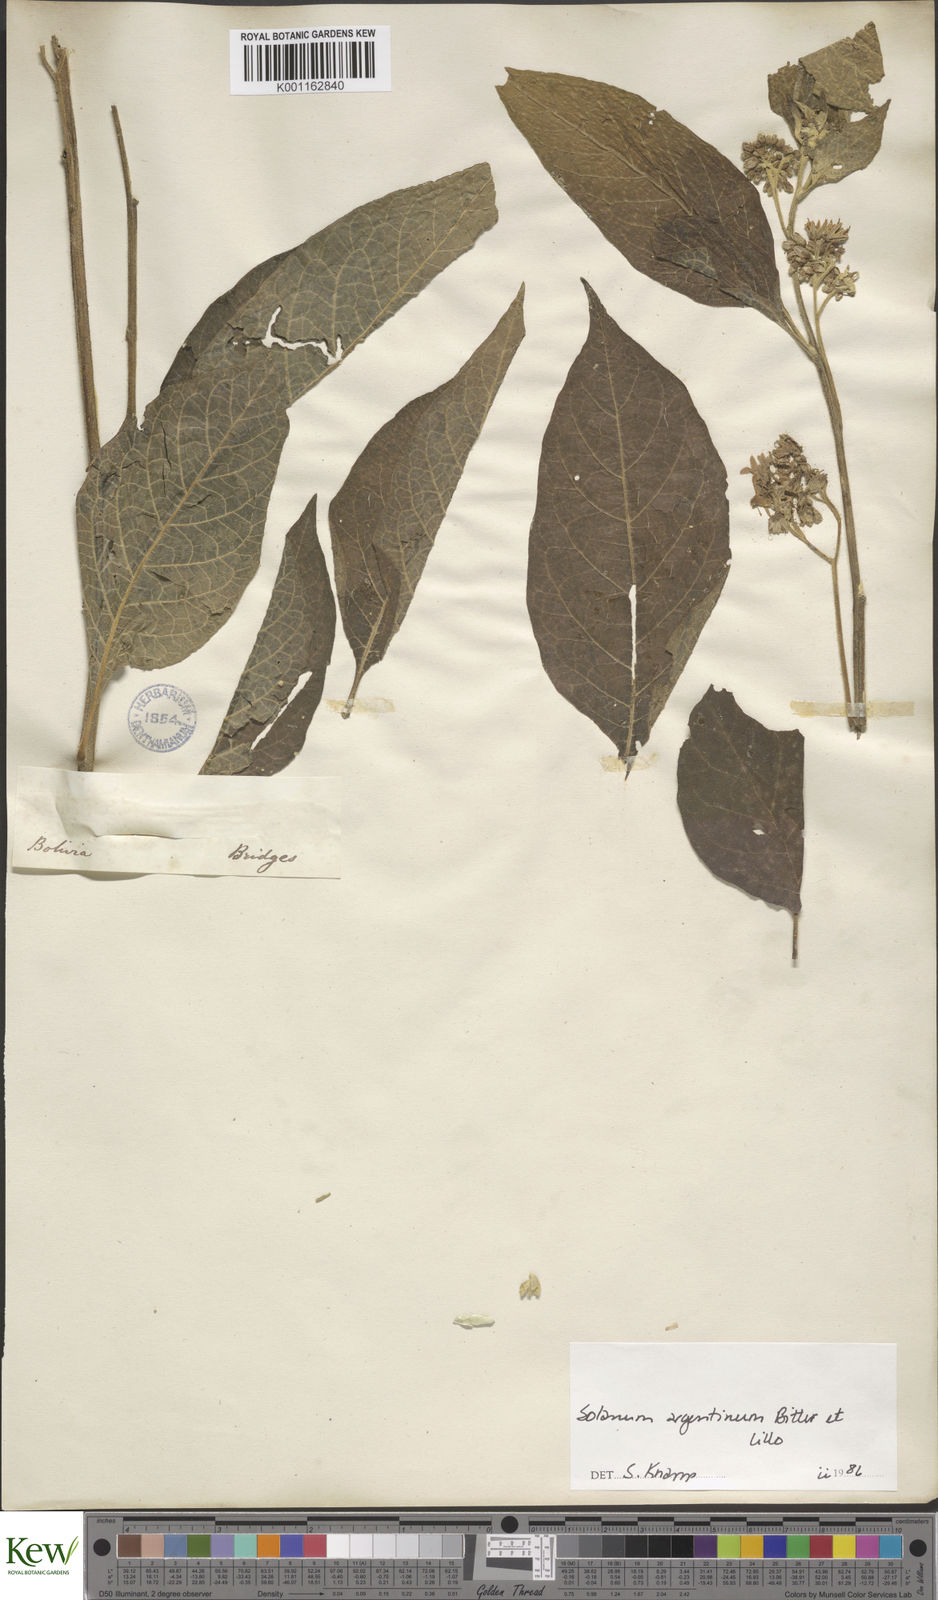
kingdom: Plantae
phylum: Tracheophyta
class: Magnoliopsida
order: Solanales
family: Solanaceae
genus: Solanum
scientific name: Solanum argentinum
